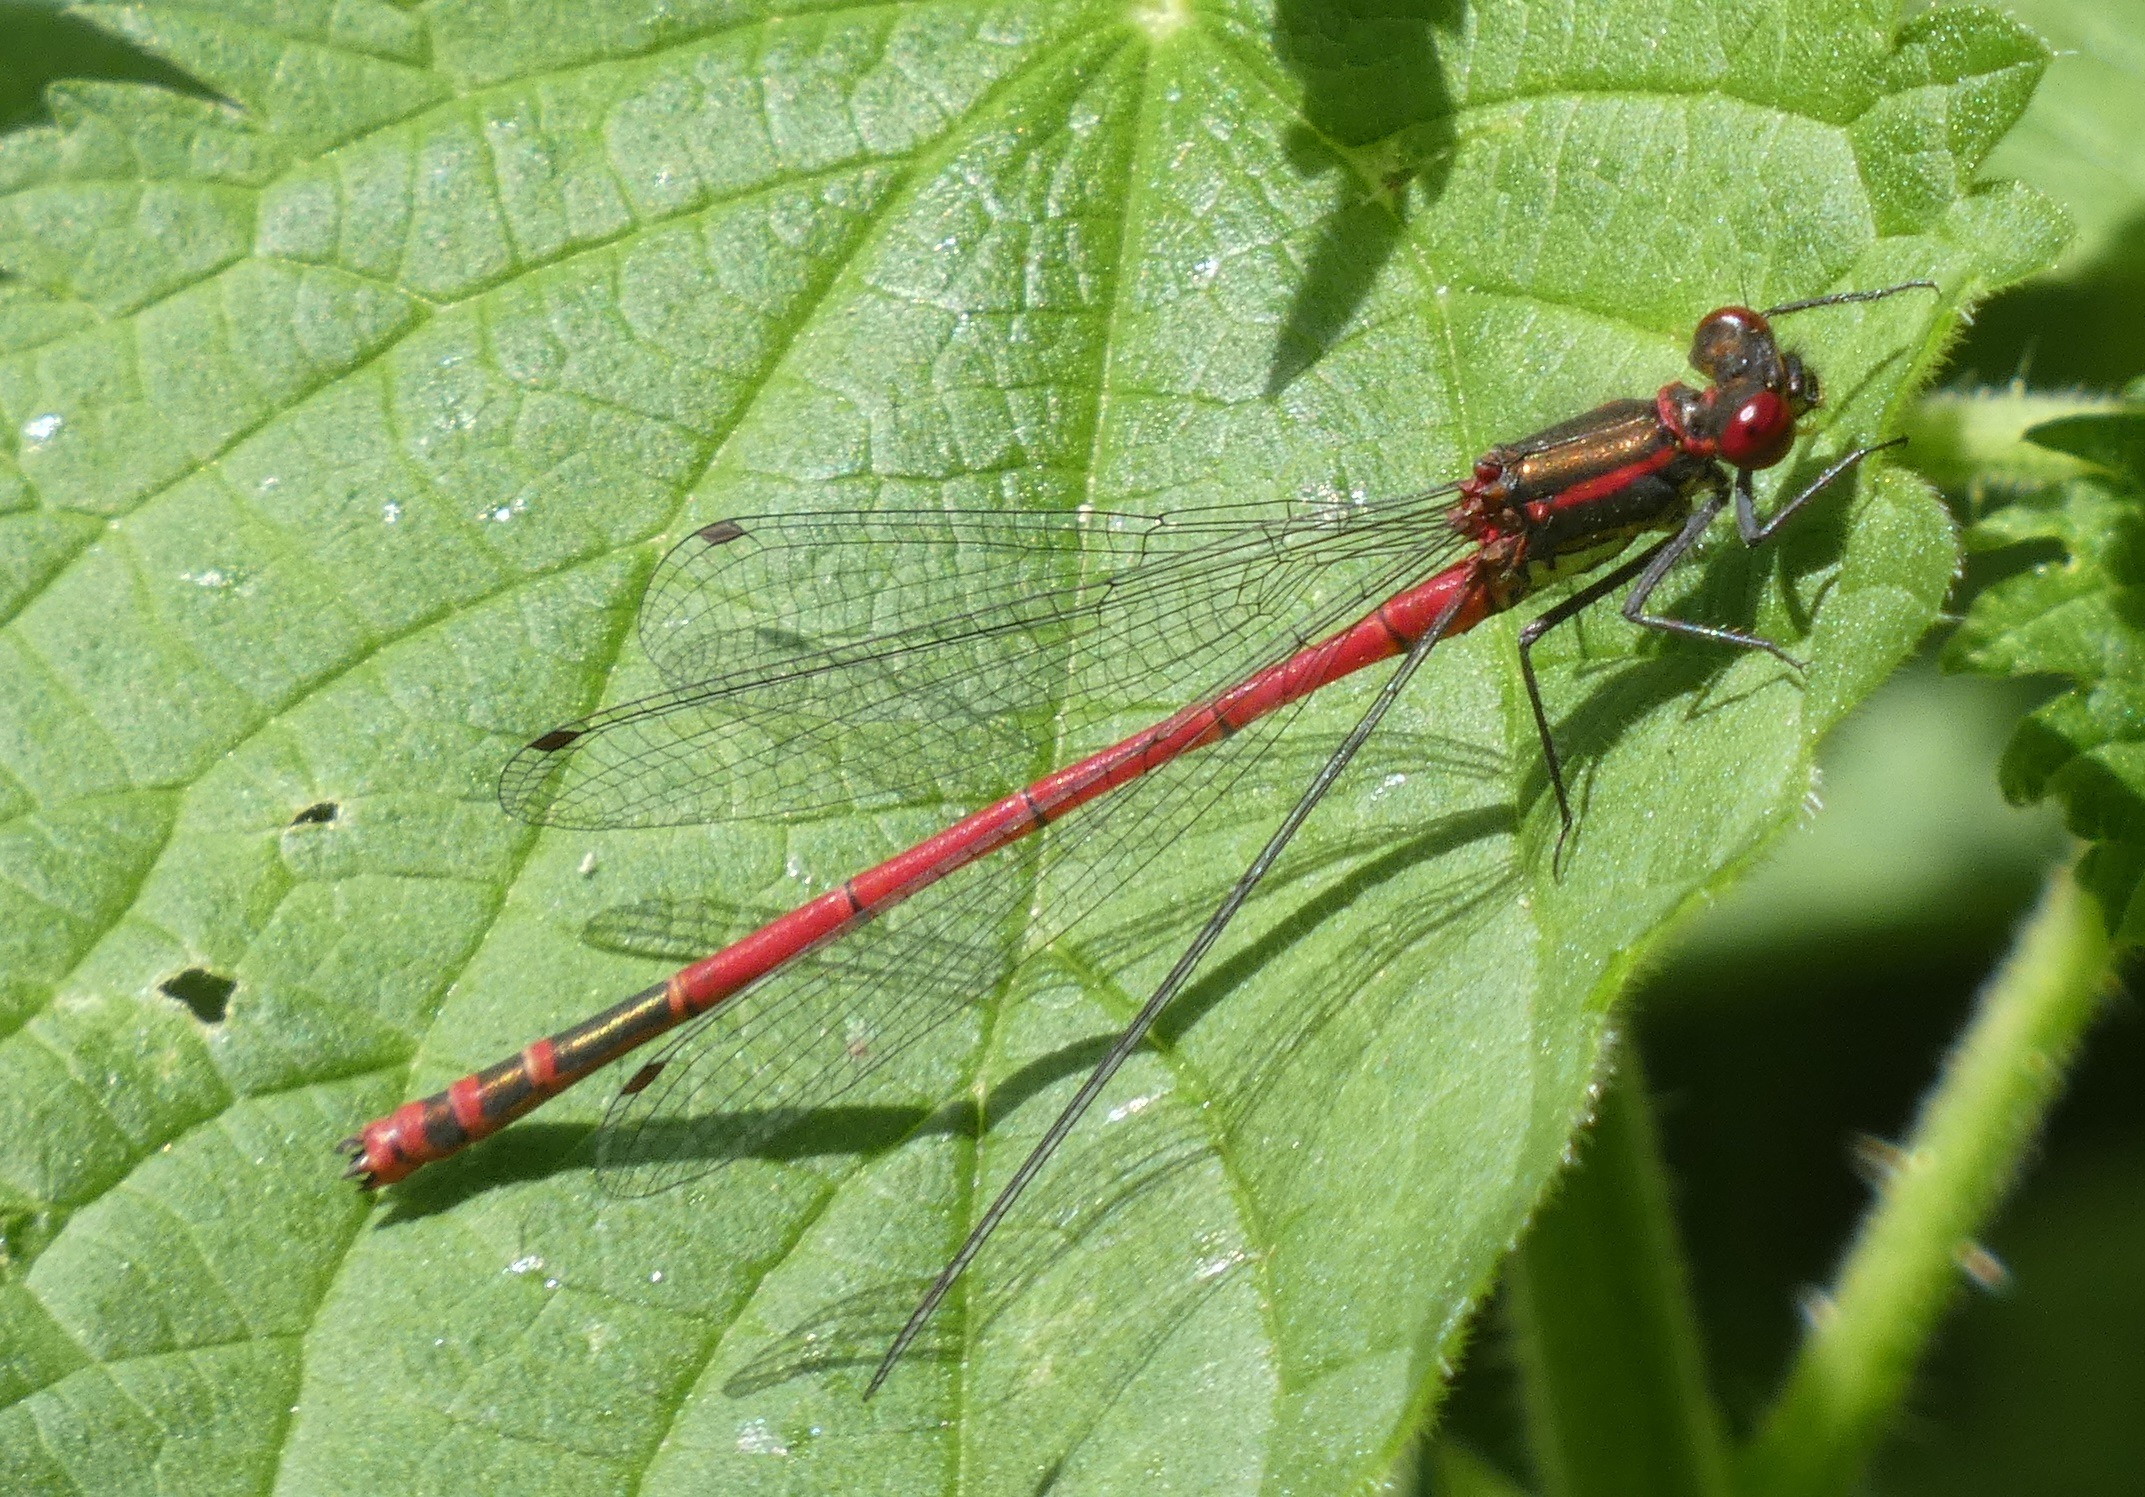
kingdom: Animalia
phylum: Arthropoda
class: Insecta
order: Odonata
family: Coenagrionidae
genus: Pyrrhosoma
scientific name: Pyrrhosoma nymphula
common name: Rød vandnymfe
